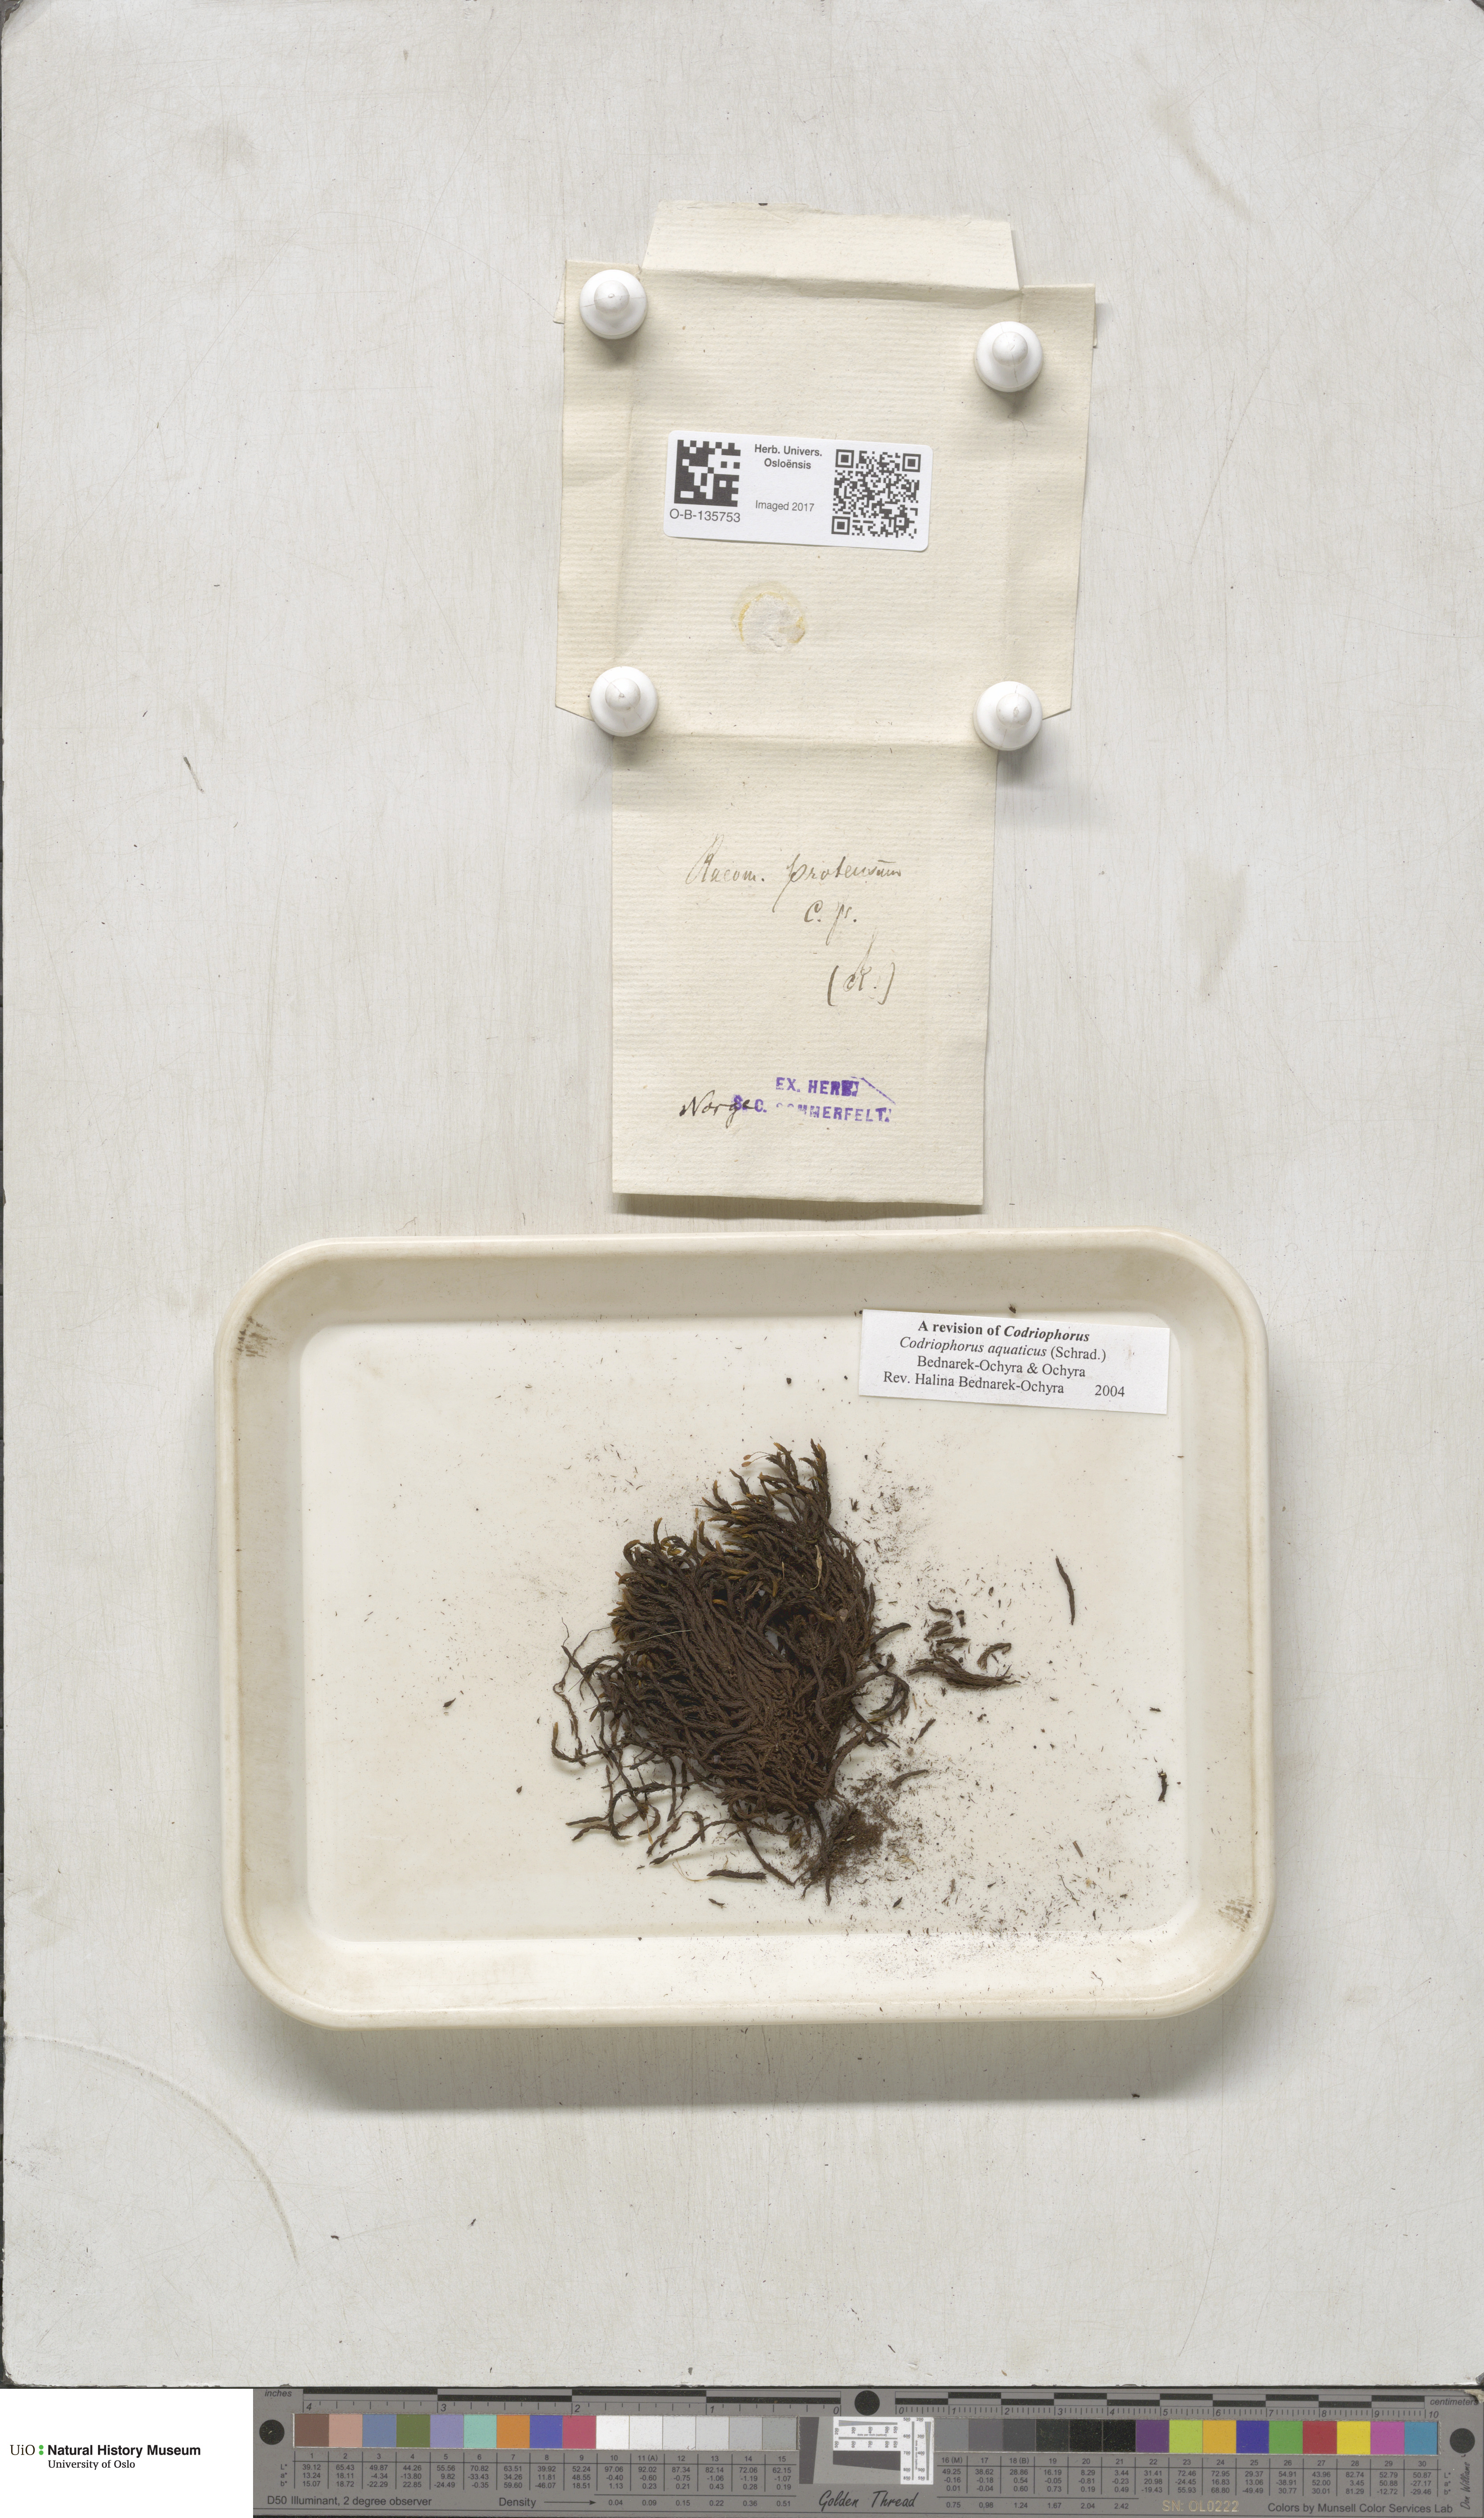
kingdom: Plantae
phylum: Bryophyta
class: Bryopsida
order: Grimmiales
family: Grimmiaceae
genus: Codriophorus
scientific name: Codriophorus aquaticus
